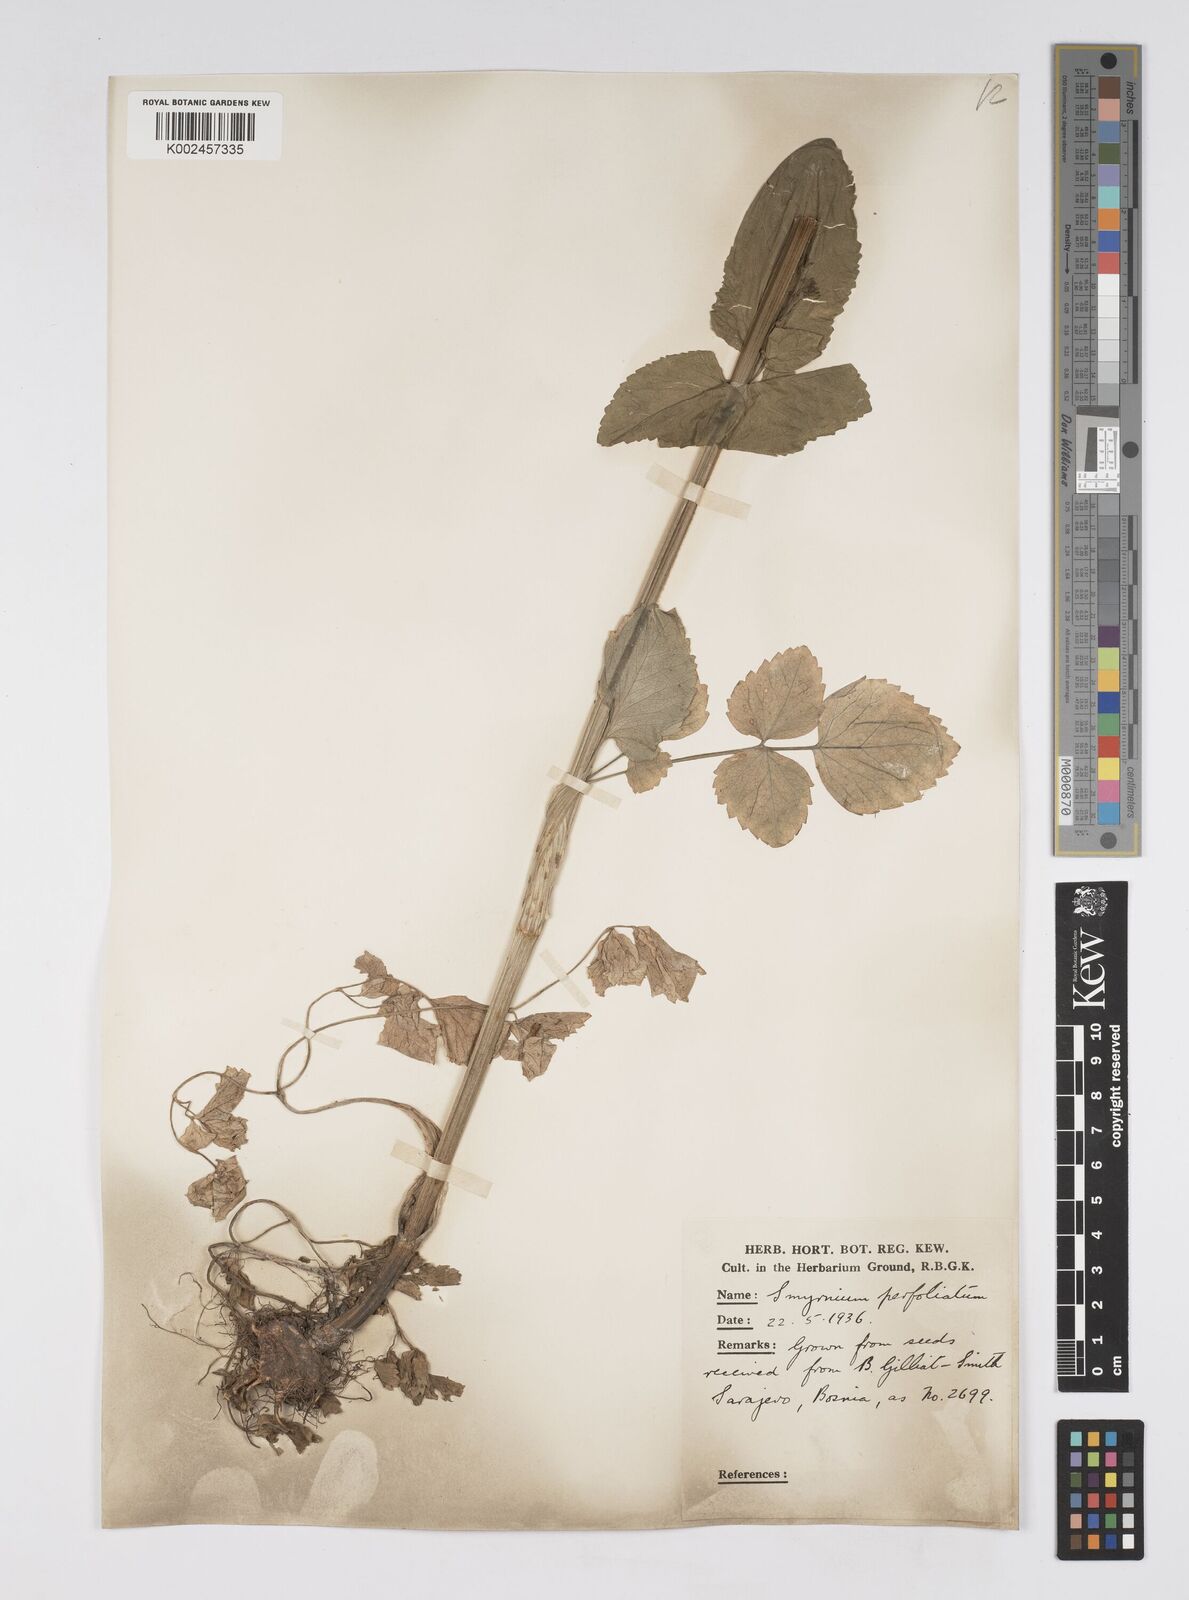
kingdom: Plantae
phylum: Tracheophyta
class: Magnoliopsida
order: Apiales
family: Apiaceae
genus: Smyrnium
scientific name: Smyrnium perfoliatum
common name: Perfoliate alexanders
